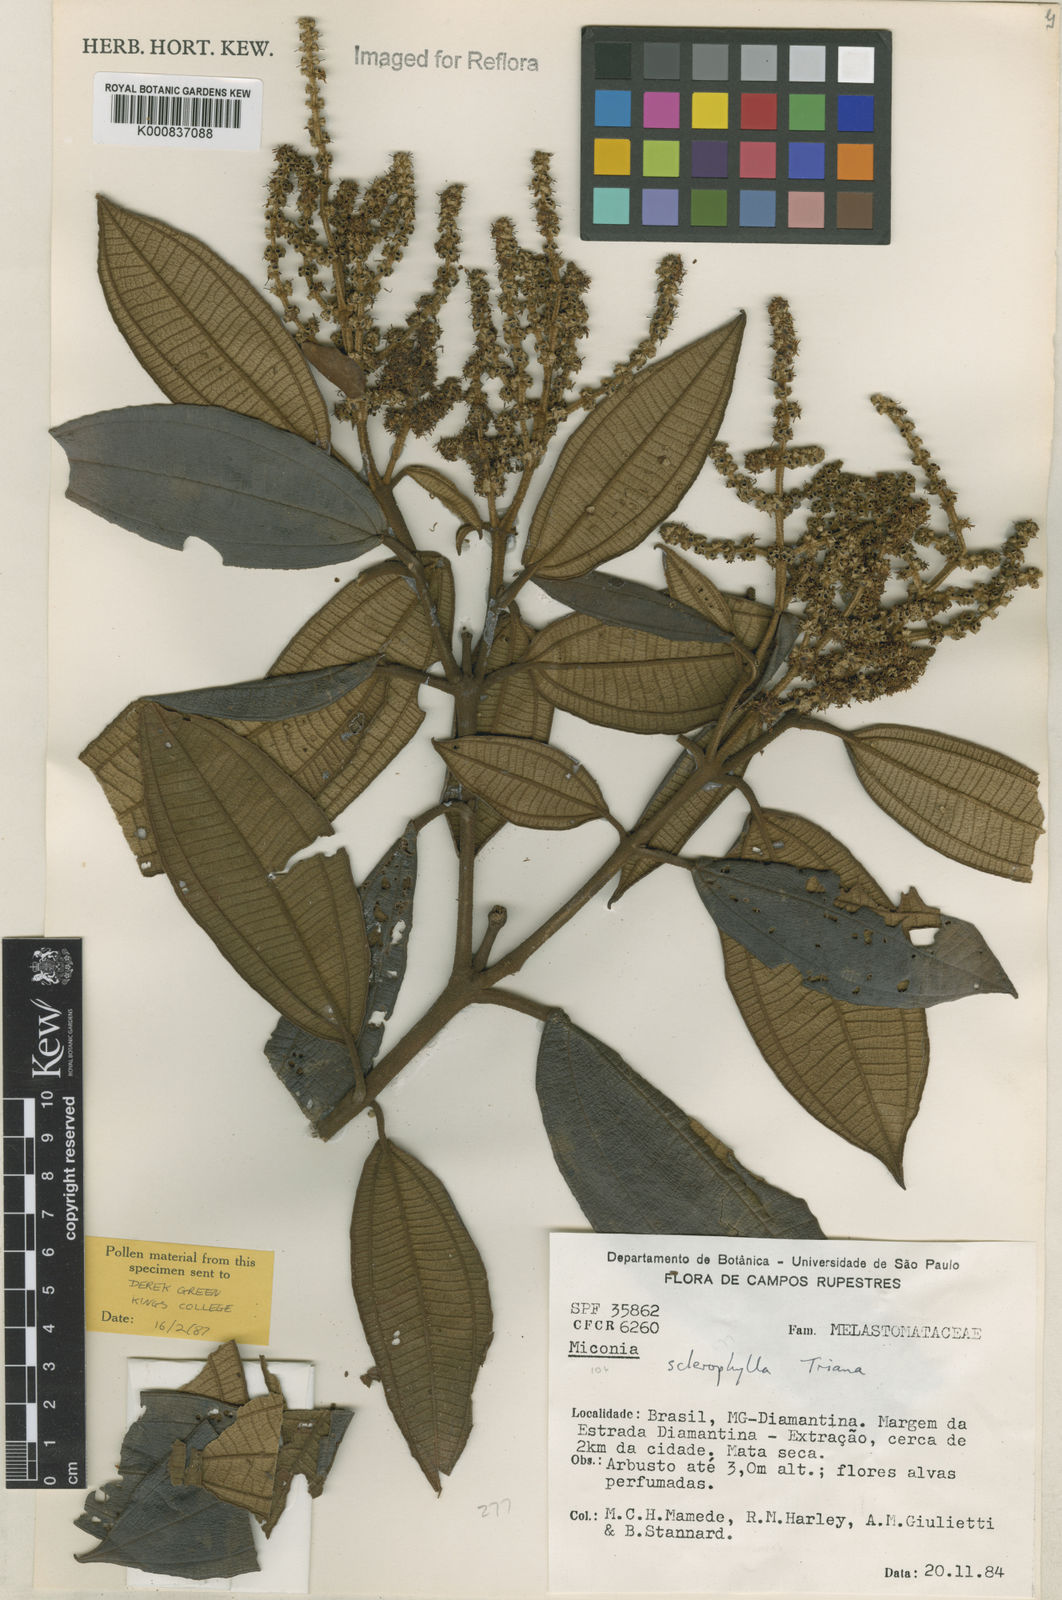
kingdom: Plantae
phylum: Tracheophyta
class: Magnoliopsida
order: Myrtales
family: Melastomataceae
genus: Miconia
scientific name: Miconia sclerophylla
